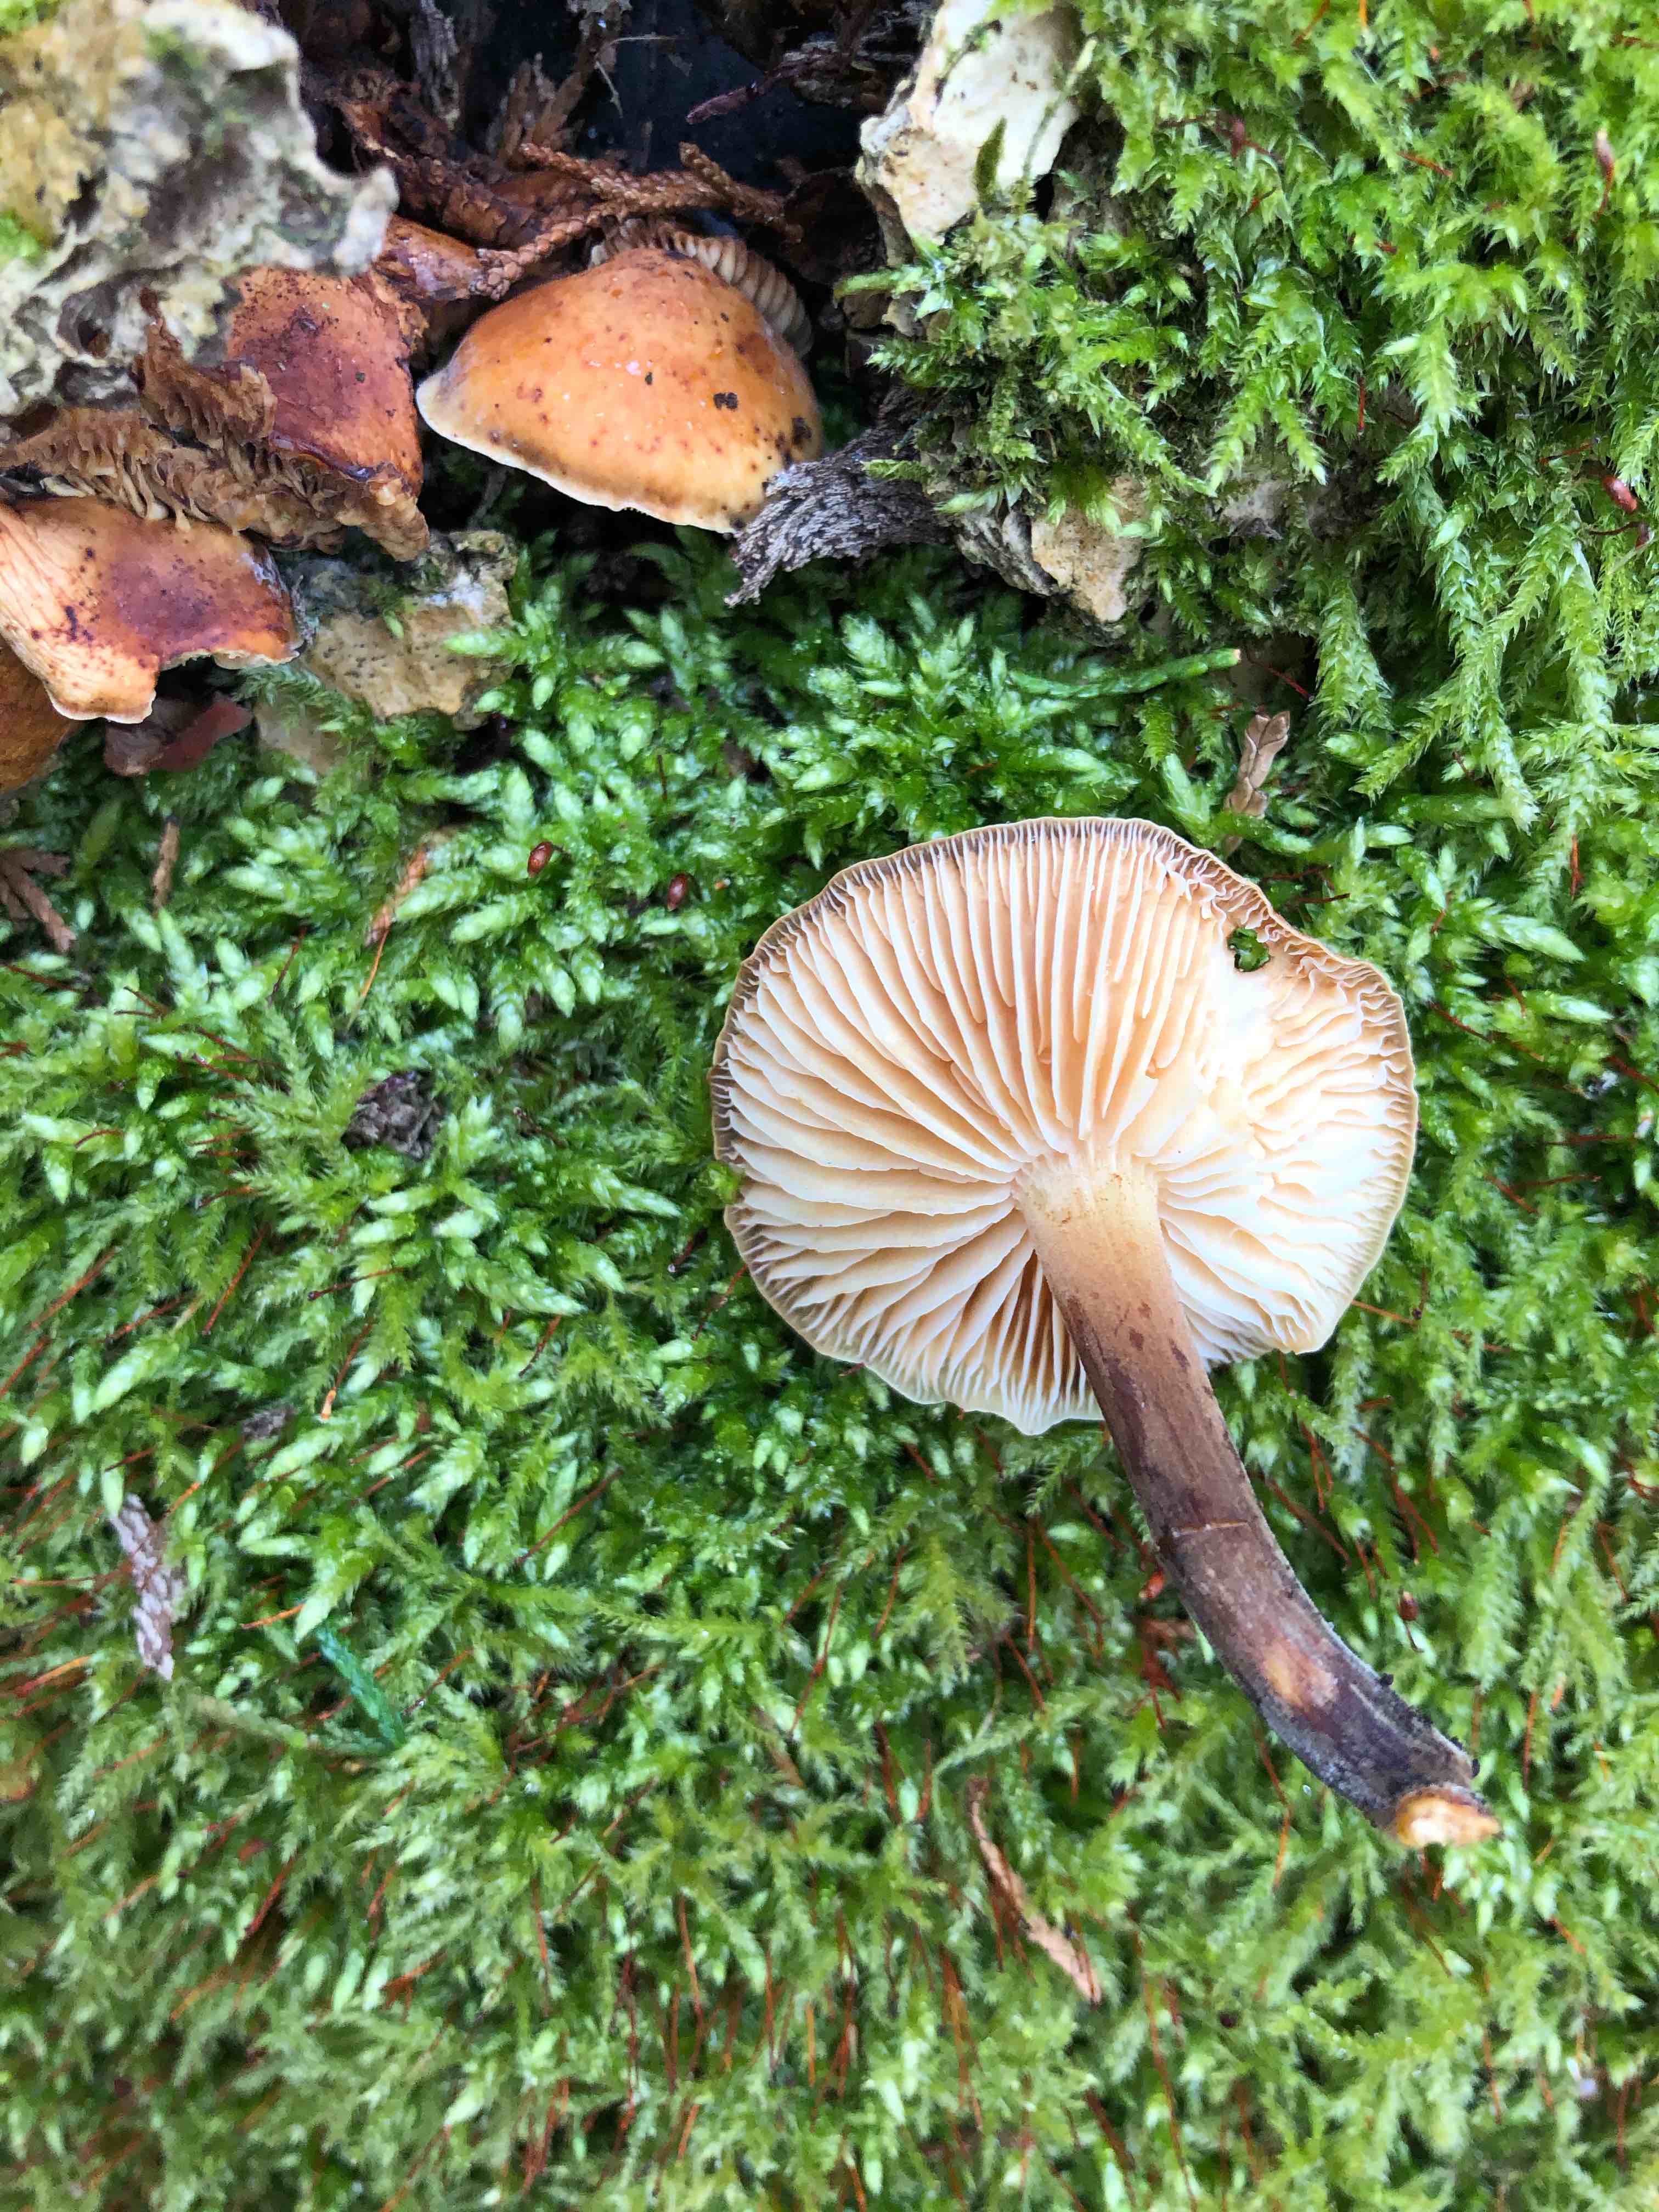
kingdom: Fungi
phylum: Basidiomycota
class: Agaricomycetes
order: Agaricales
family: Physalacriaceae
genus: Flammulina
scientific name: Flammulina velutipes
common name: gul fløjlsfod
